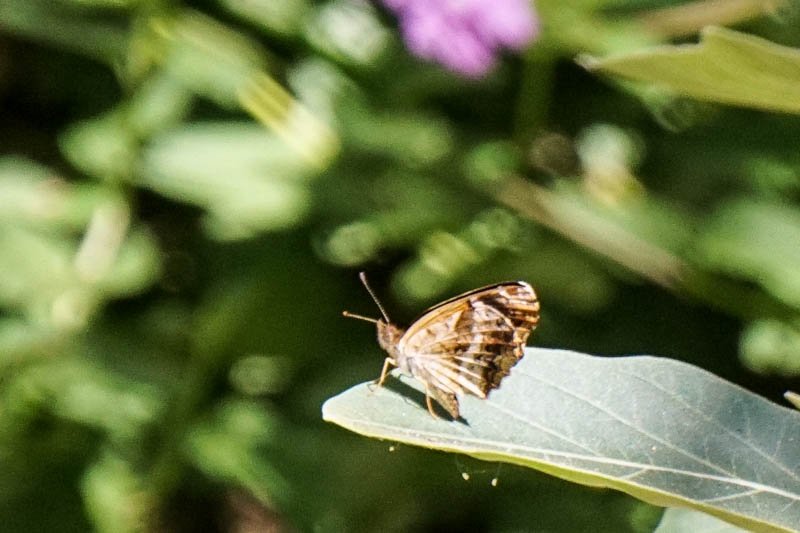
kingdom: Animalia
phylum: Arthropoda
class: Insecta
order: Lepidoptera
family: Hesperiidae
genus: Atalopedes
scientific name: Atalopedes campestris
